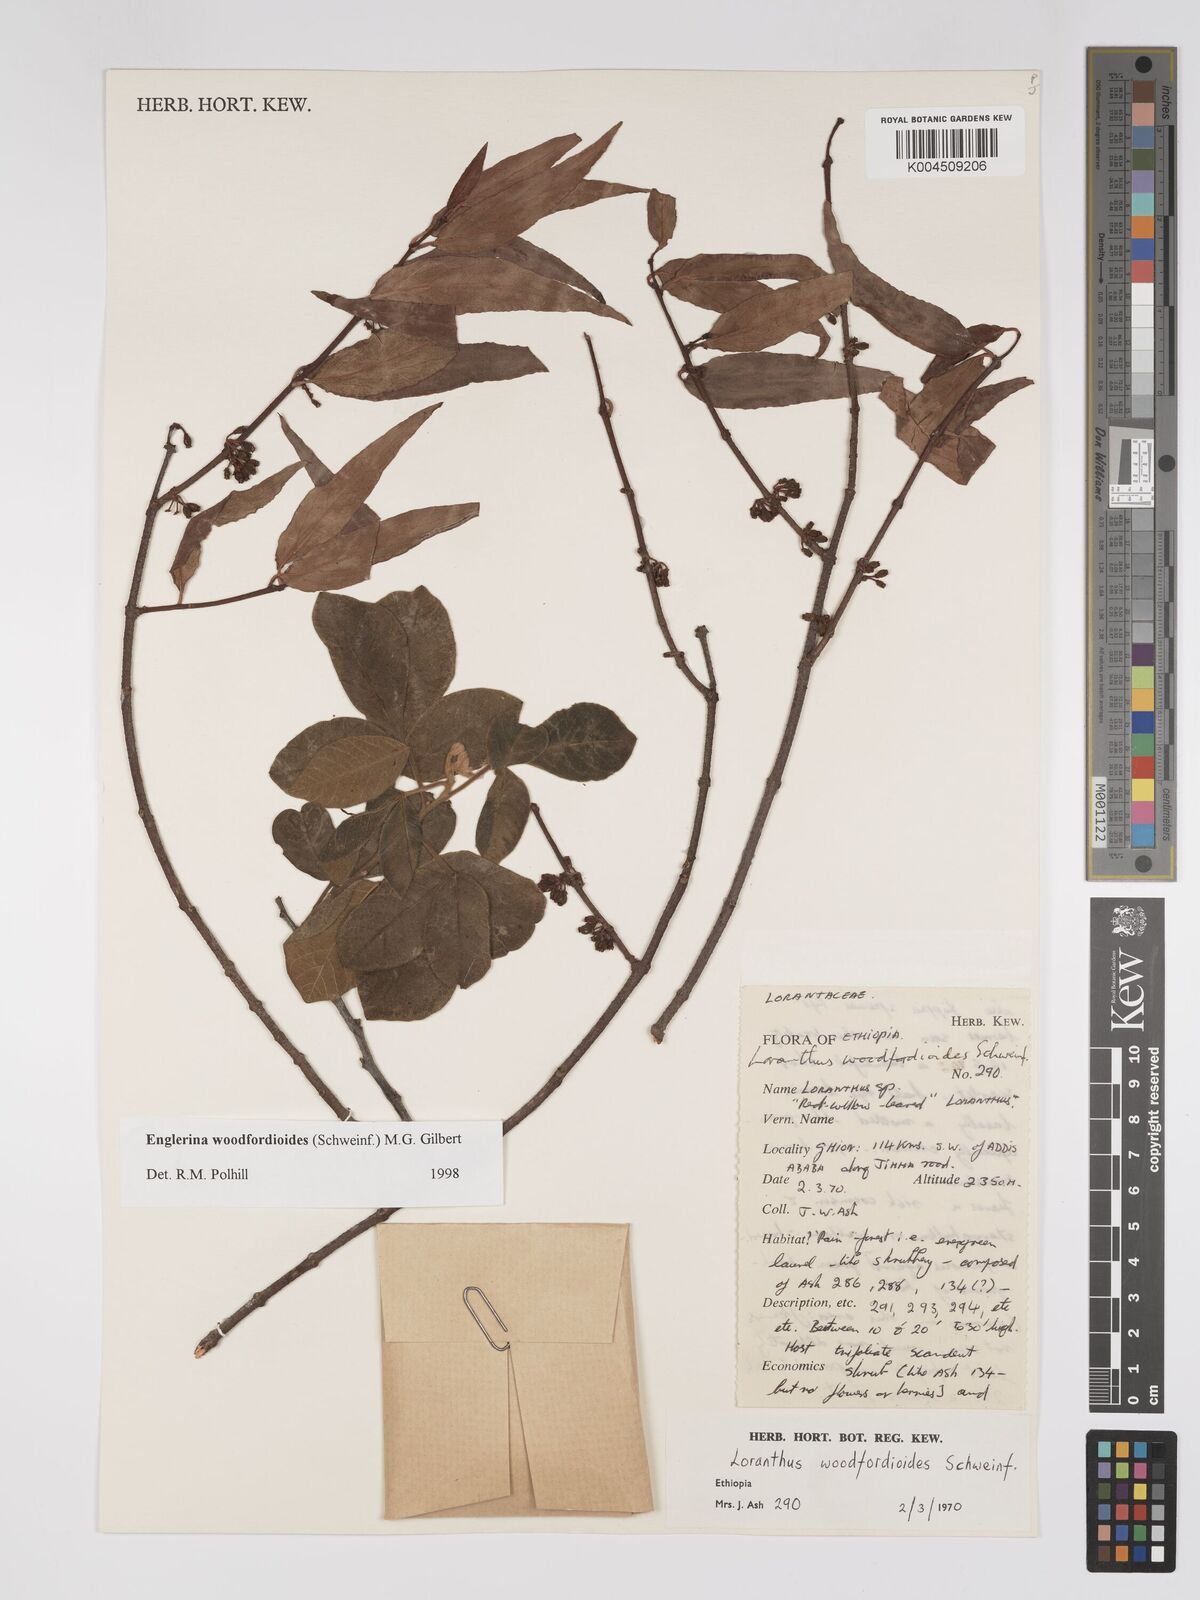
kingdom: Plantae
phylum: Tracheophyta
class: Magnoliopsida
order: Santalales
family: Loranthaceae
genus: Englerina
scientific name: Englerina woodfordioides
